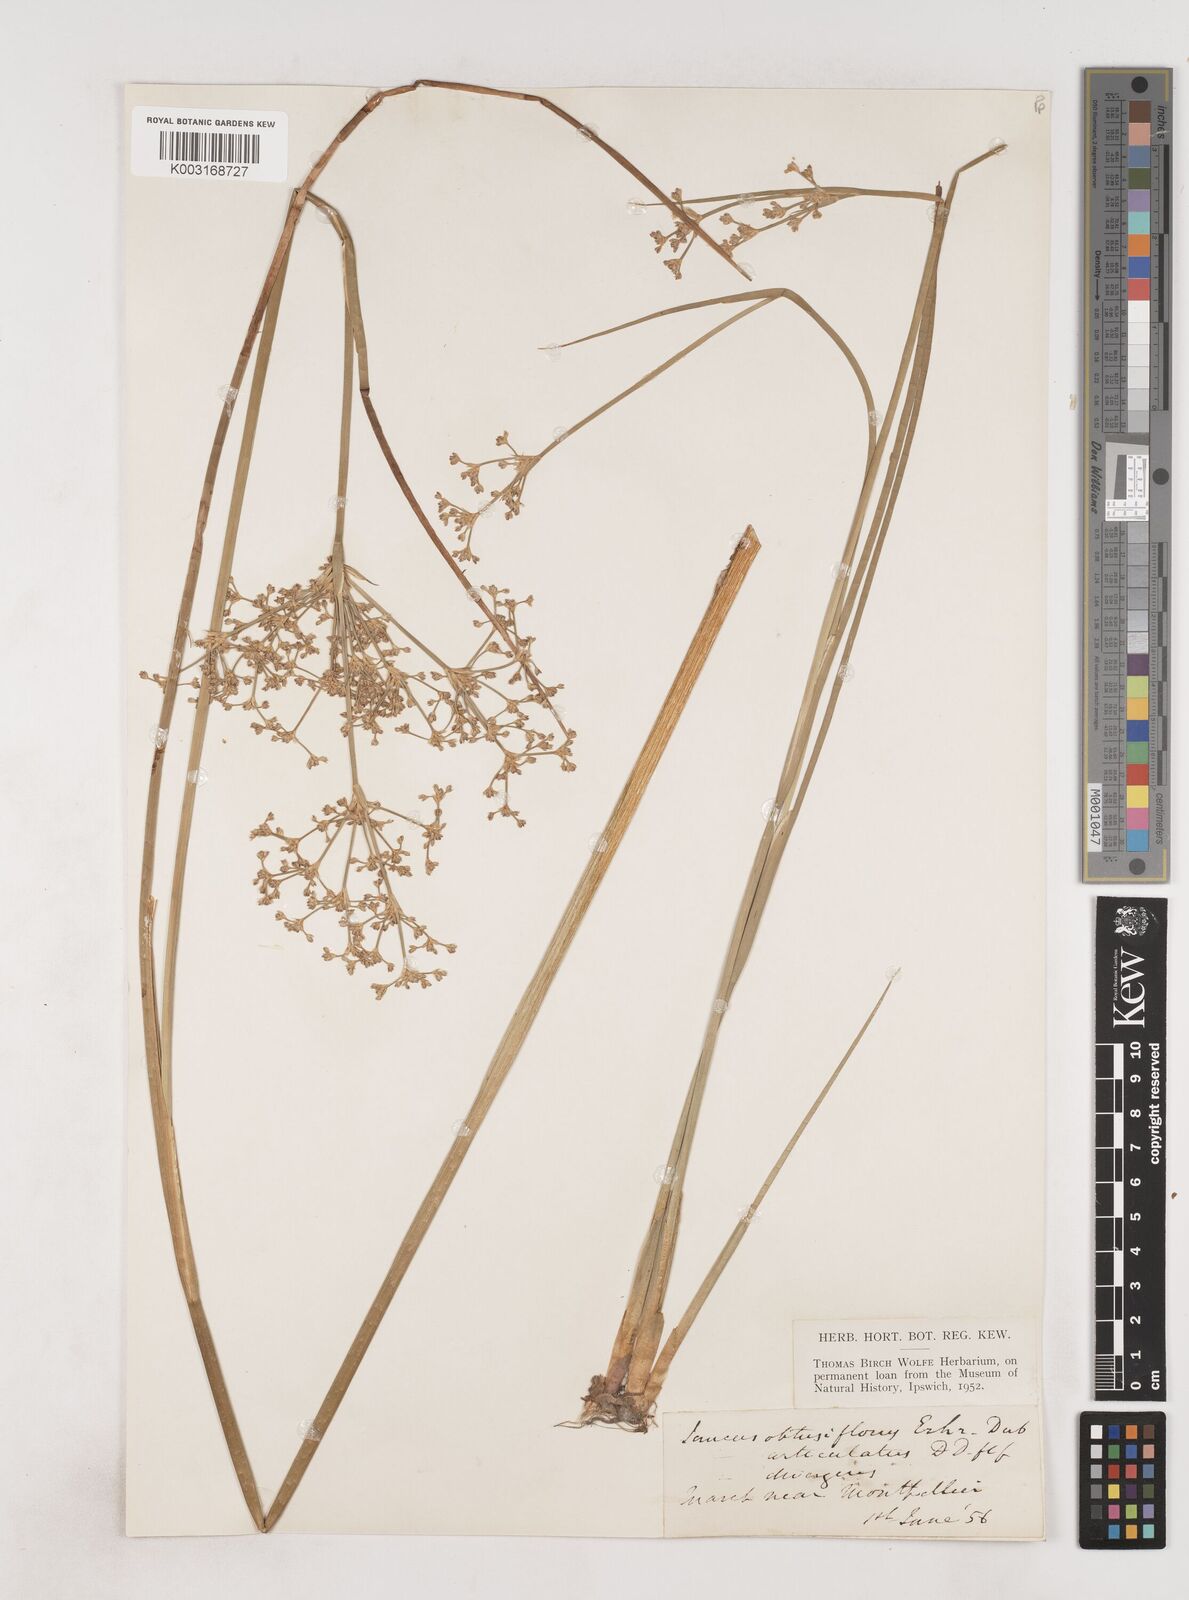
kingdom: Plantae
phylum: Tracheophyta
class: Liliopsida
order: Poales
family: Juncaceae
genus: Juncus
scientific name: Juncus subnodulosus
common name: Blunt-flowered rush
